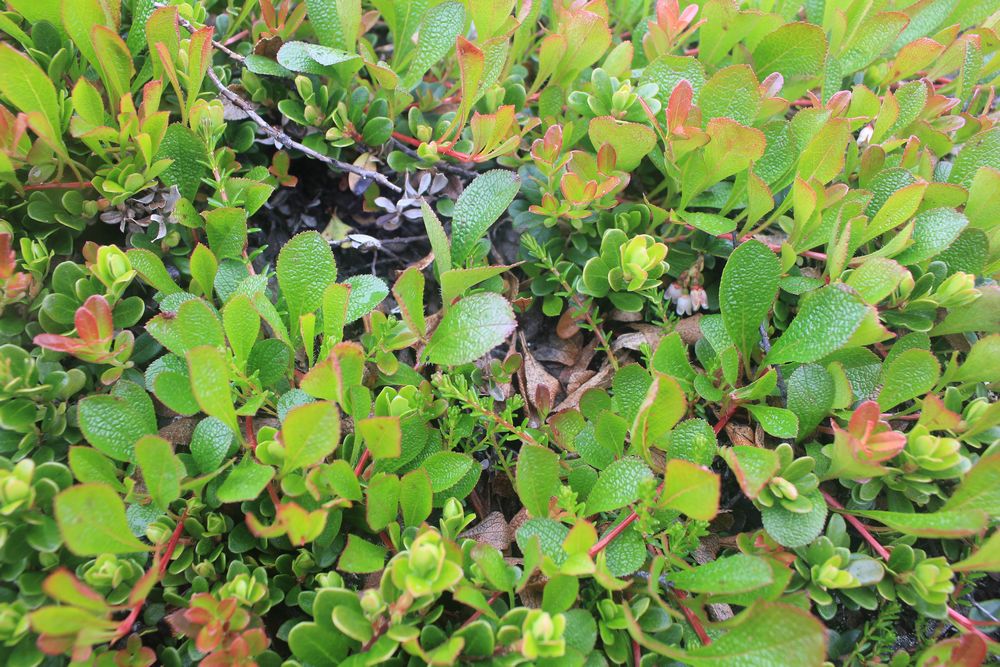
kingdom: Plantae
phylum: Tracheophyta
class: Magnoliopsida
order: Ericales
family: Ericaceae
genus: Arctostaphylos
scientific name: Arctostaphylos alpinus
